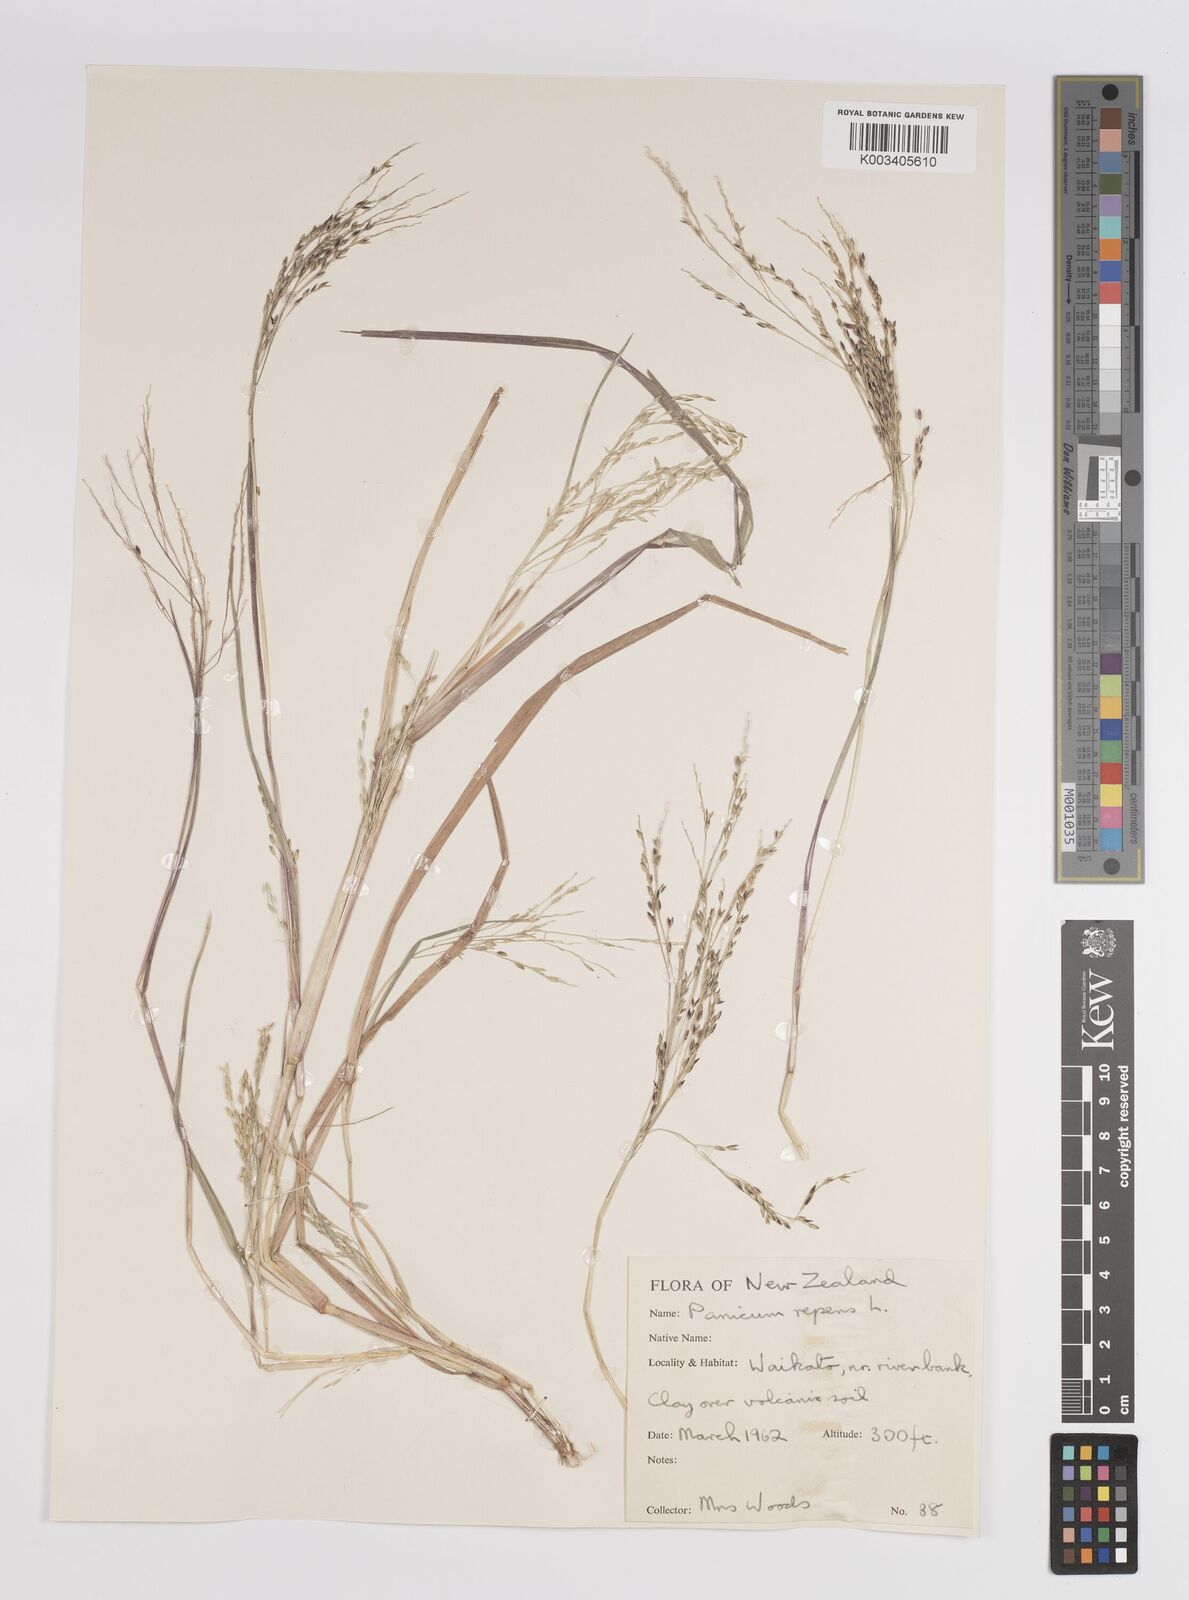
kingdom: Plantae
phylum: Tracheophyta
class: Liliopsida
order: Poales
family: Poaceae
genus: Panicum
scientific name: Panicum repens
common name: Torpedo grass
